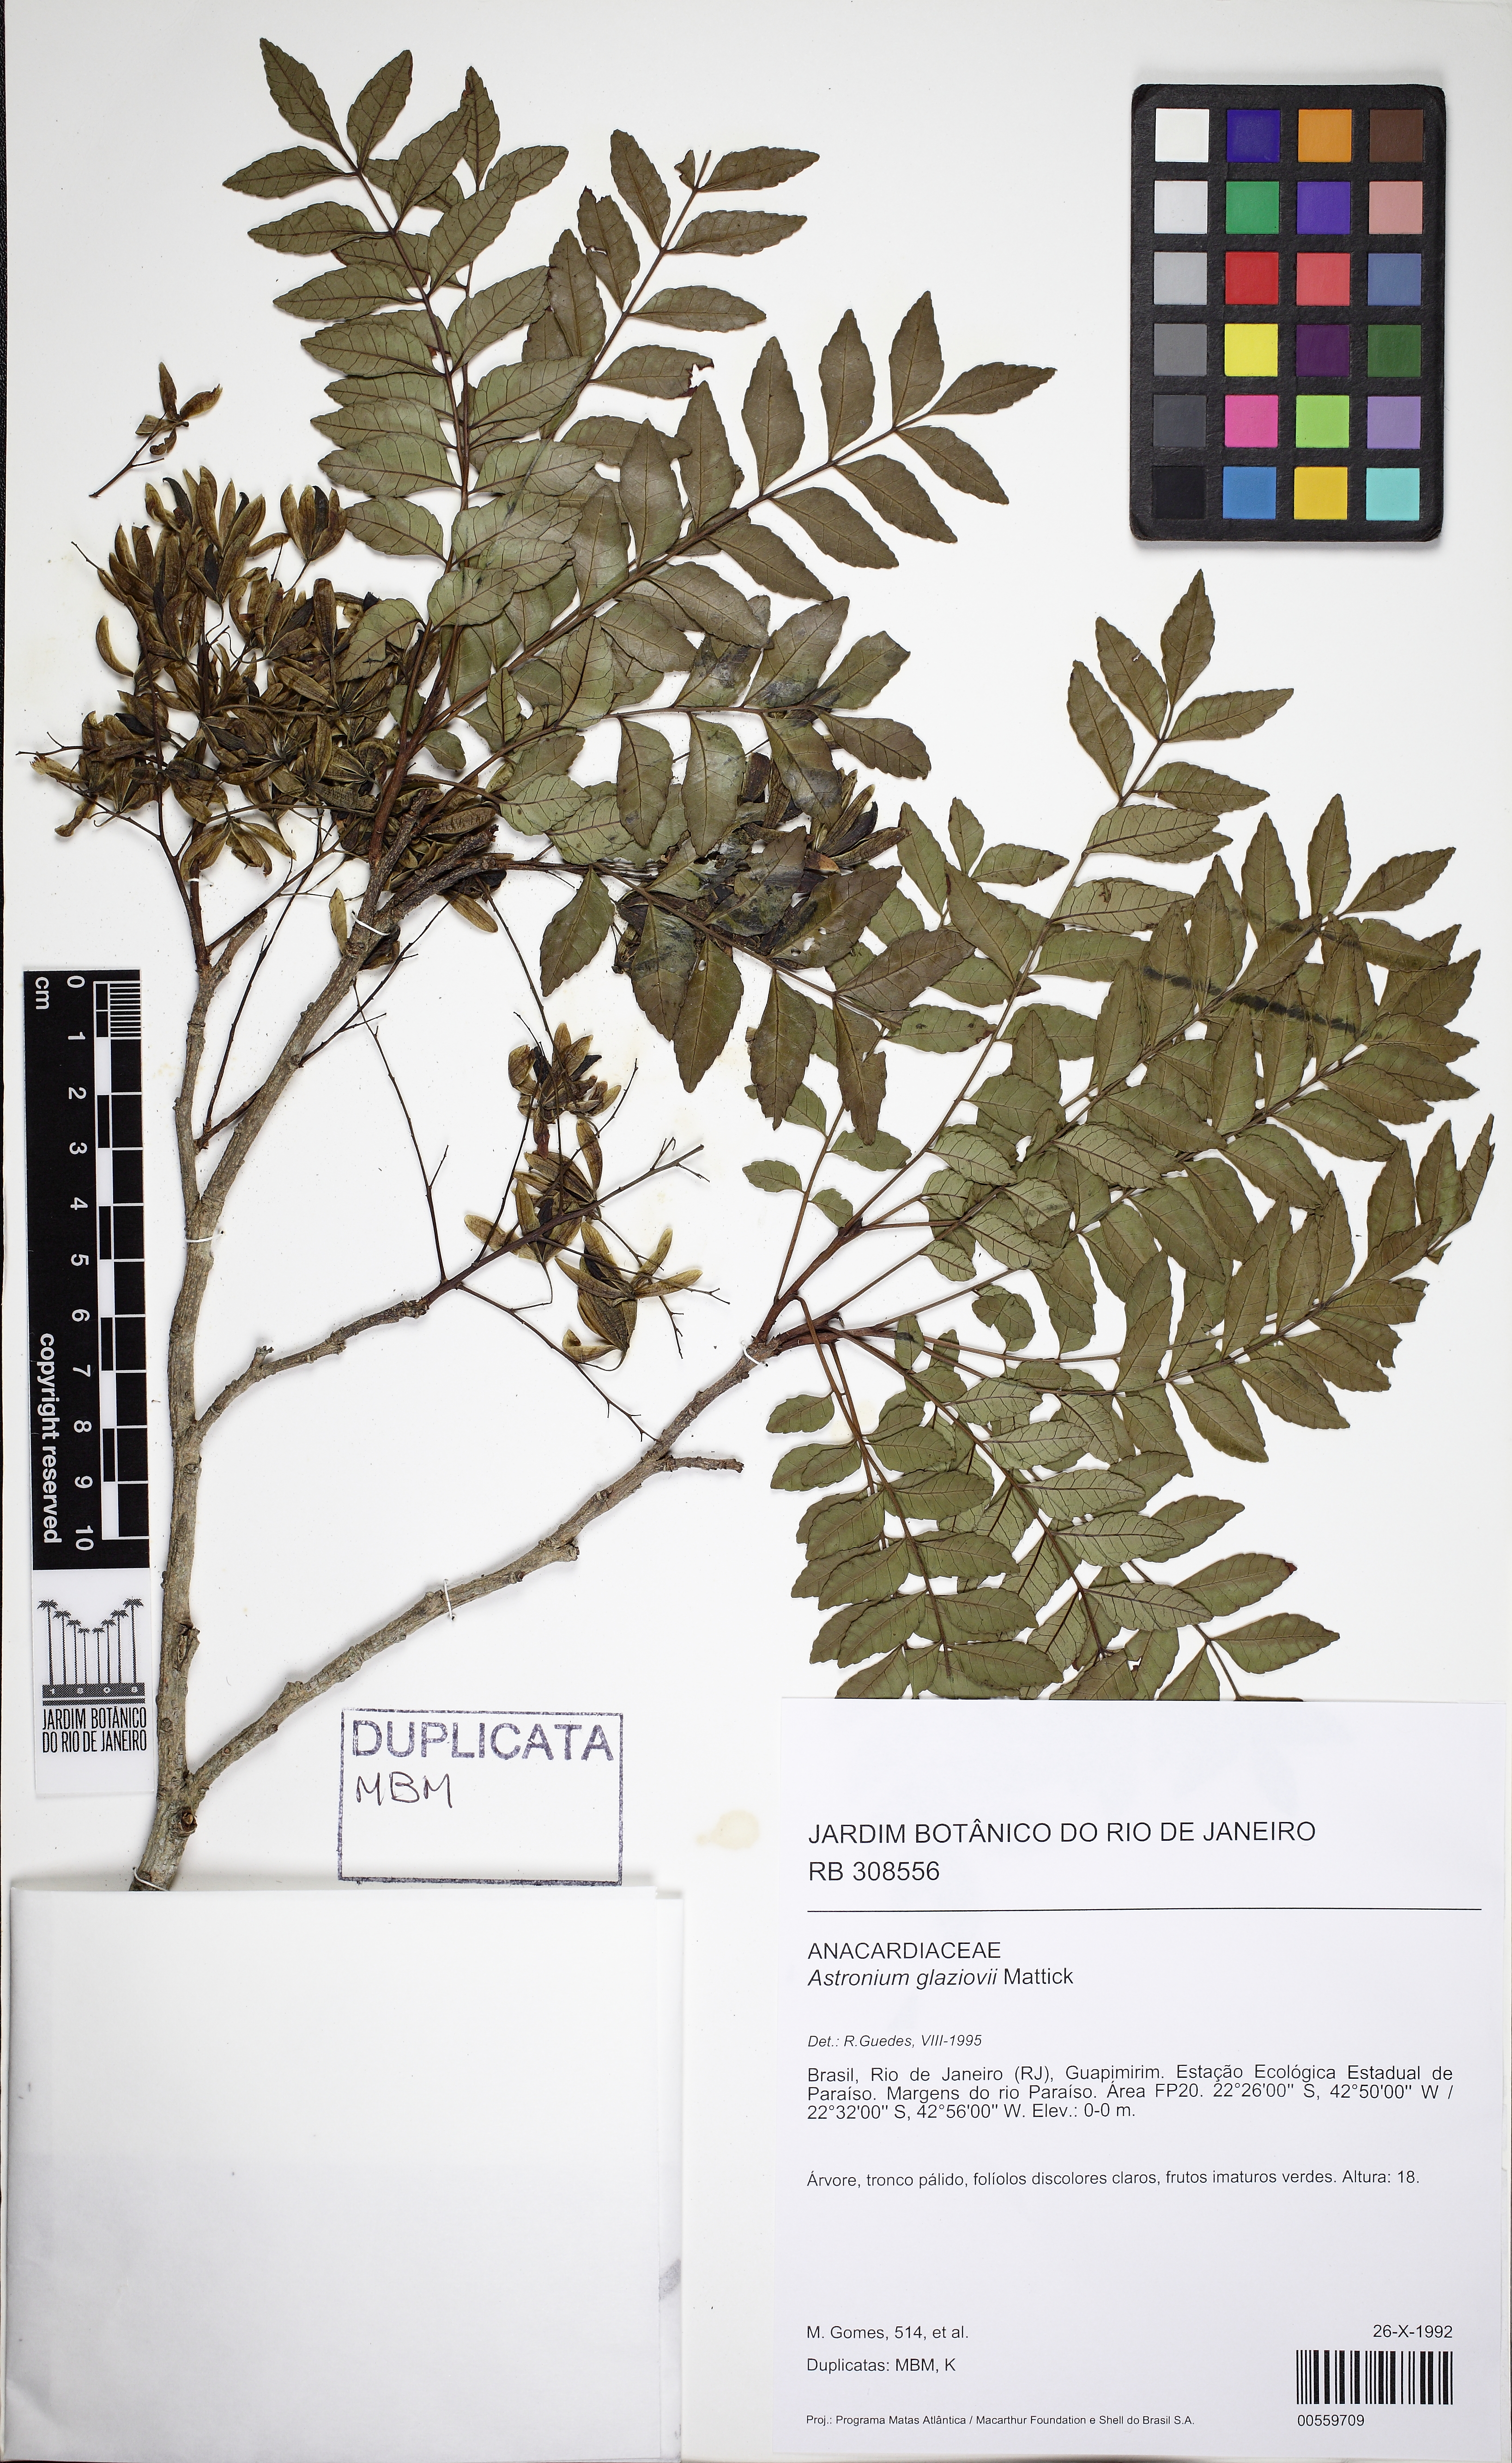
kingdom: Plantae
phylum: Tracheophyta
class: Magnoliopsida
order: Sapindales
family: Anacardiaceae
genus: Astronium
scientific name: Astronium glaziovii
